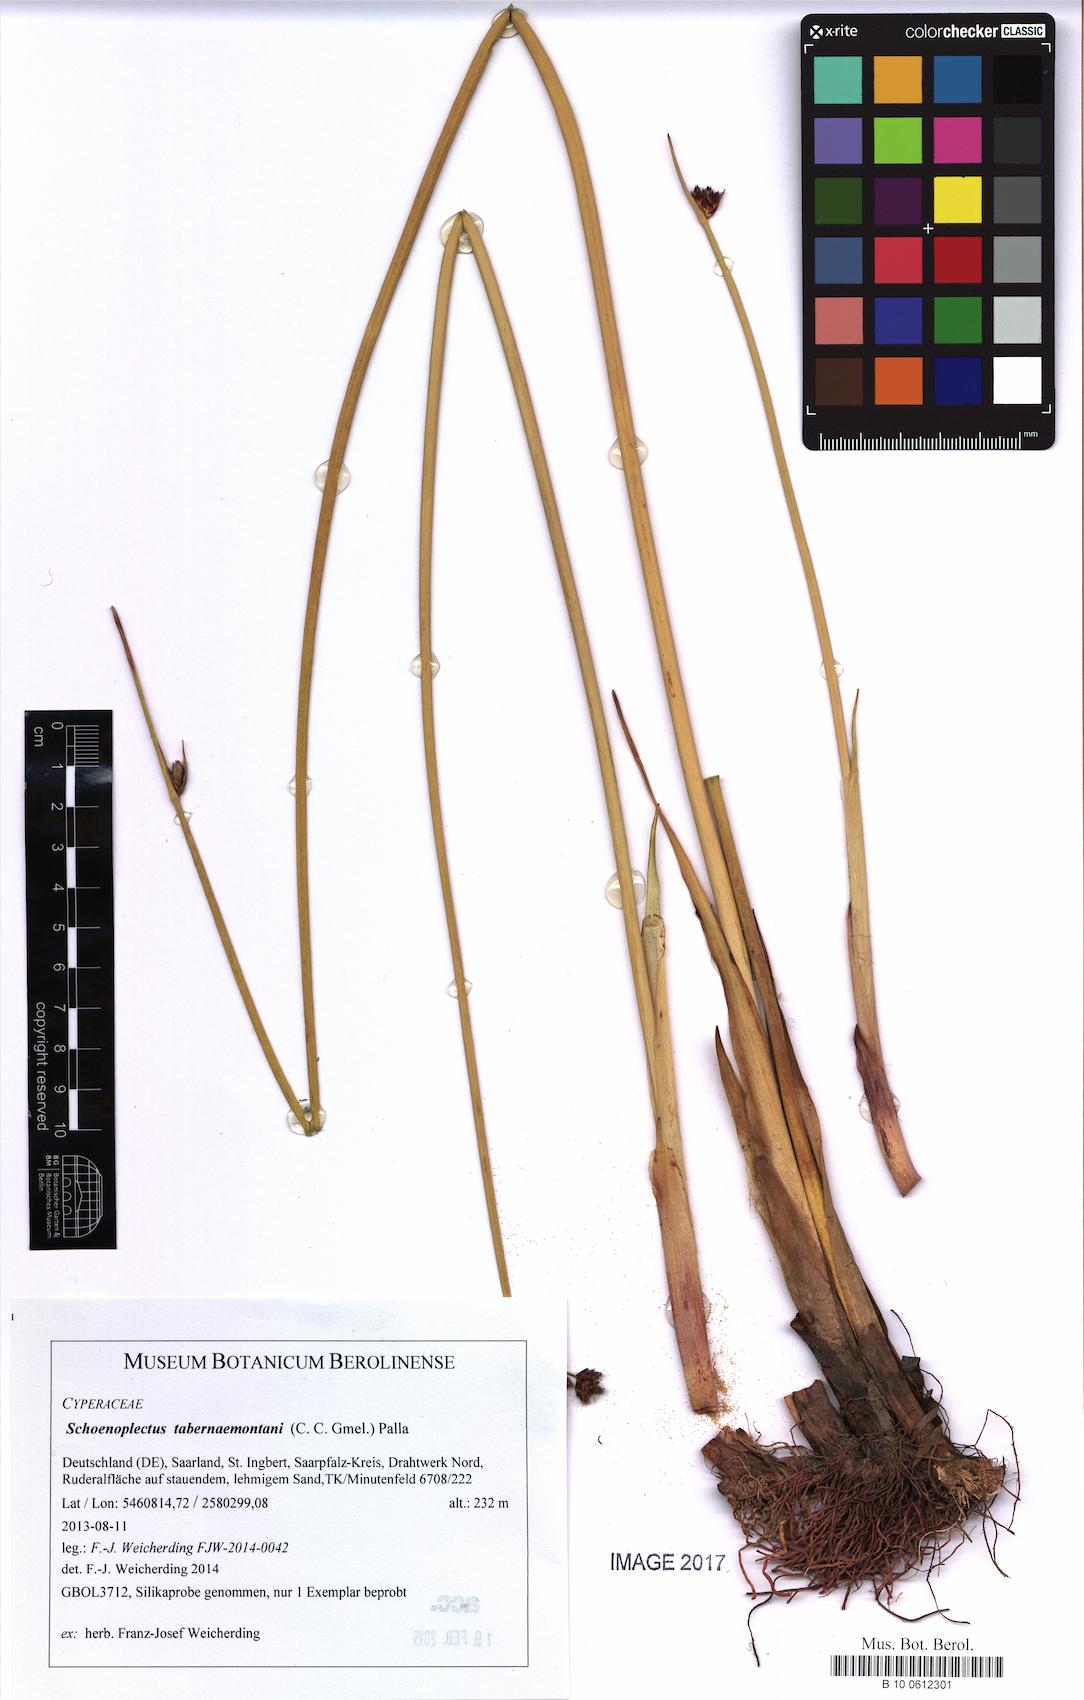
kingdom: Plantae
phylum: Tracheophyta
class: Liliopsida
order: Poales
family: Cyperaceae
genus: Schoenoplectus
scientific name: Schoenoplectus tabernaemontani
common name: Grey club-rush
